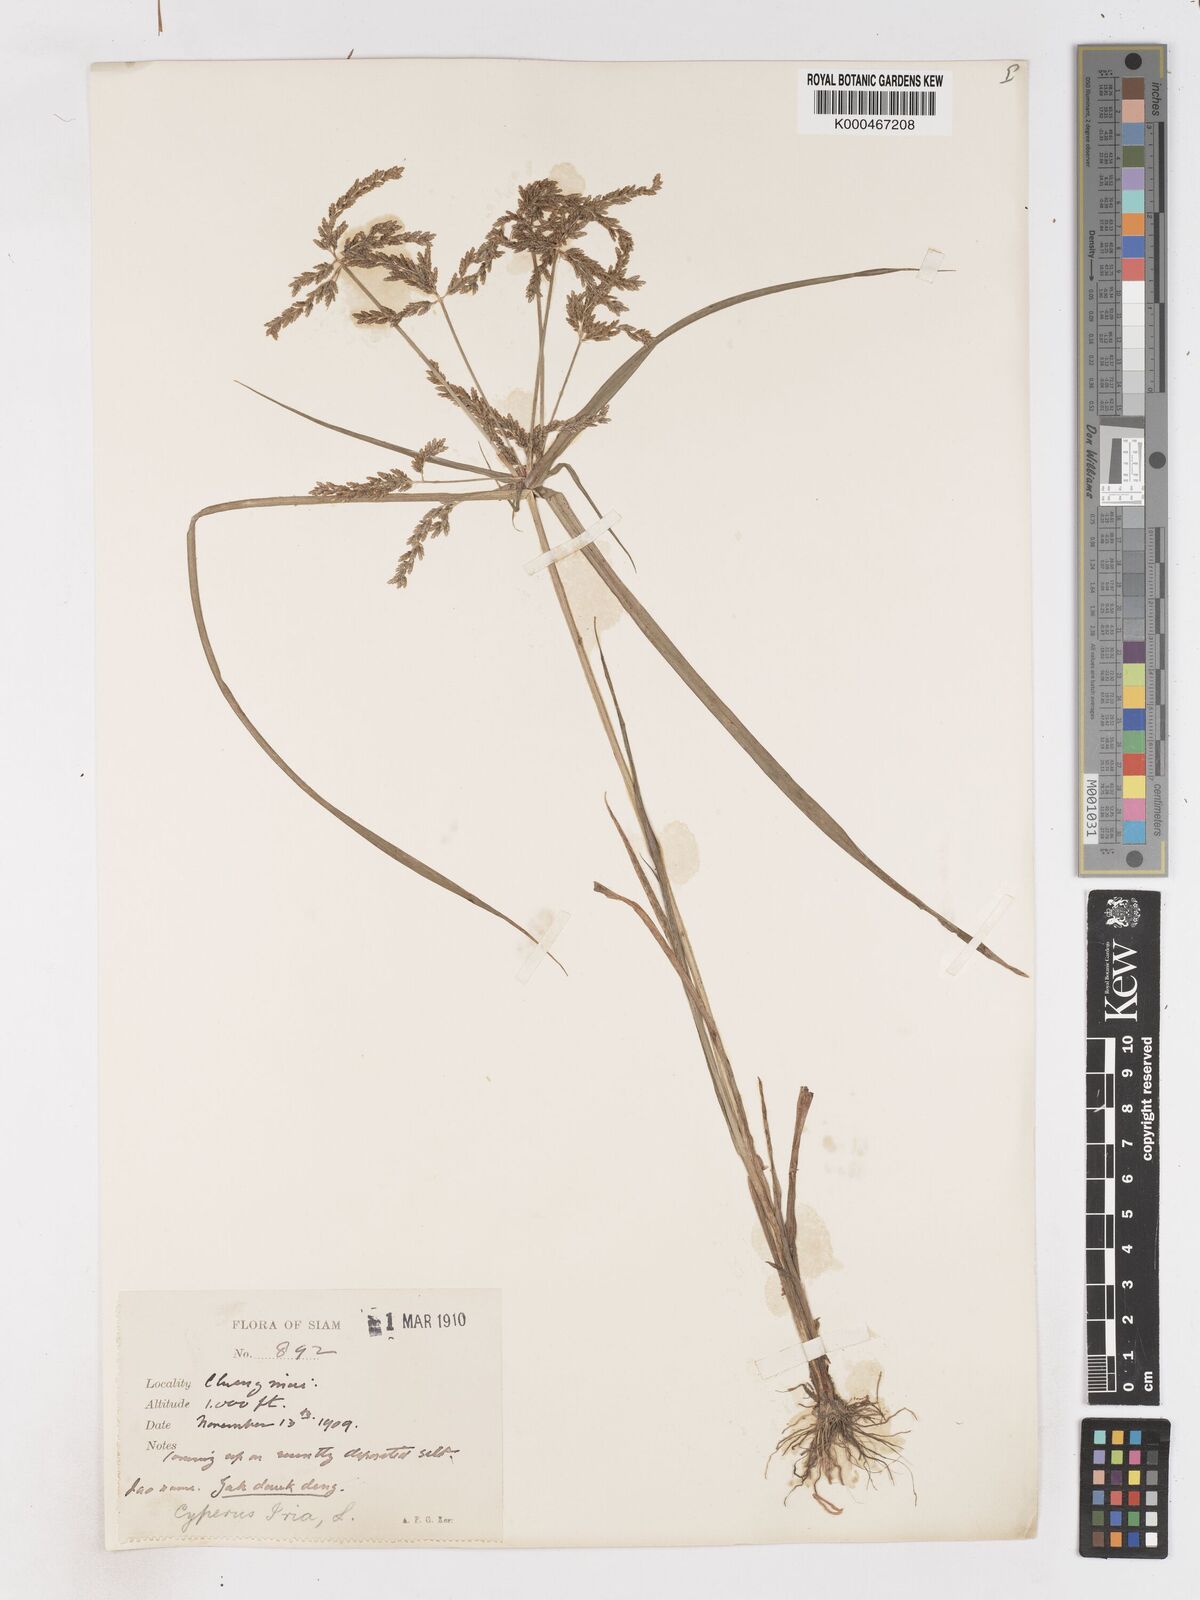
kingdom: Plantae
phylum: Tracheophyta
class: Liliopsida
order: Poales
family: Cyperaceae
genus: Cyperus
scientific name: Cyperus iria
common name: Ricefield flatsedge
